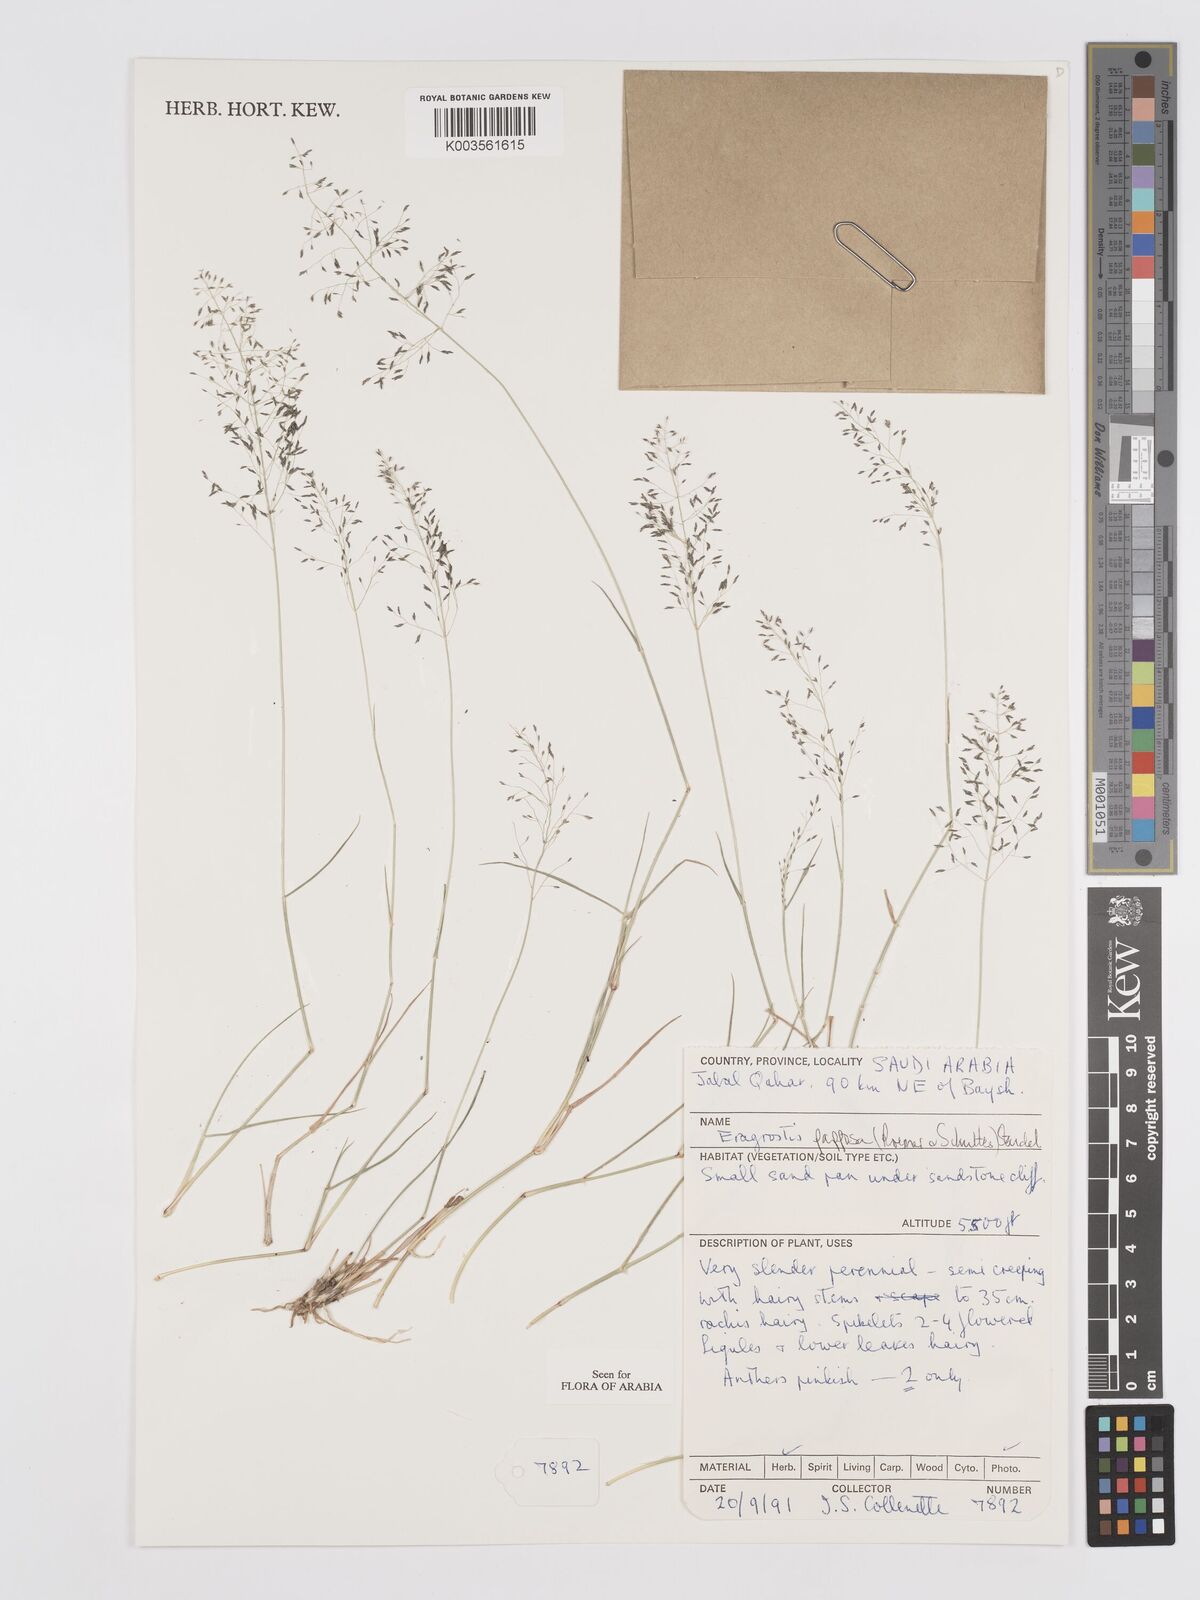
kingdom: Plantae
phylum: Tracheophyta
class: Liliopsida
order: Poales
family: Poaceae
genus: Eragrostis
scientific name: Eragrostis papposa
